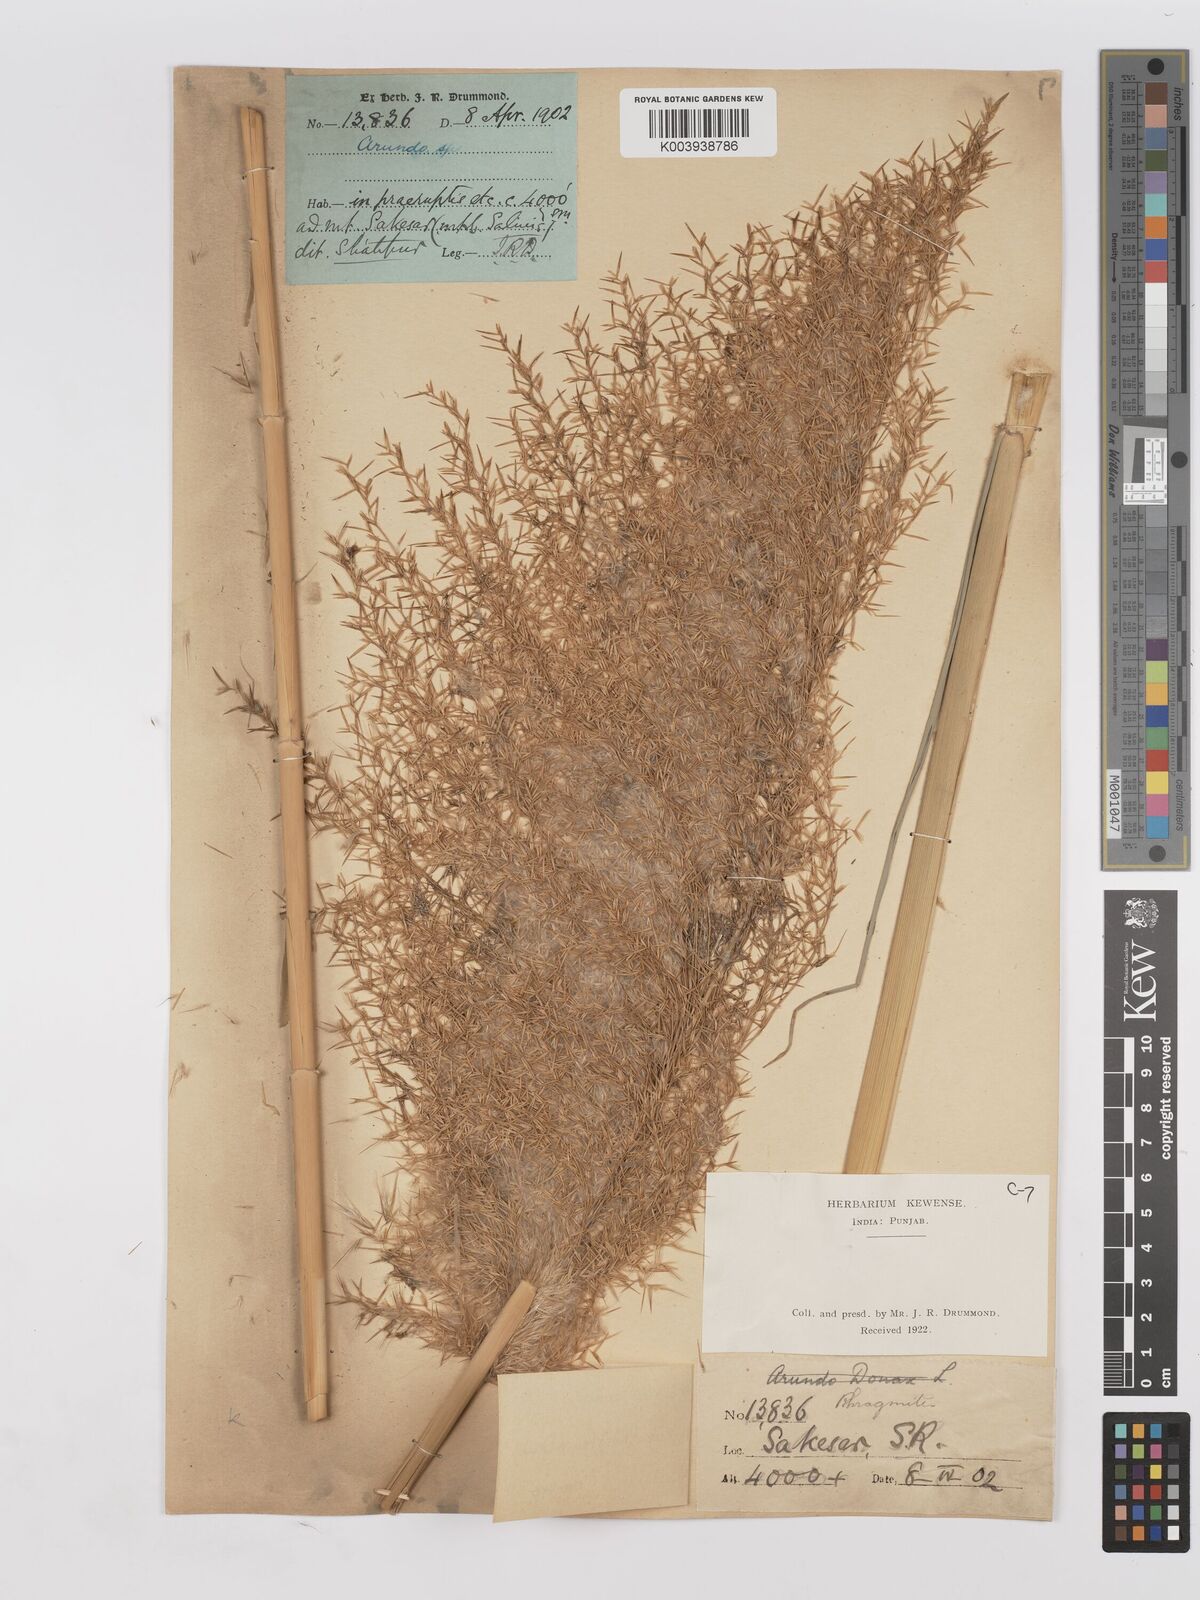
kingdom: Plantae
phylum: Tracheophyta
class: Liliopsida
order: Poales
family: Poaceae
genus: Phragmites
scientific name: Phragmites karka
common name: Tropical reed
